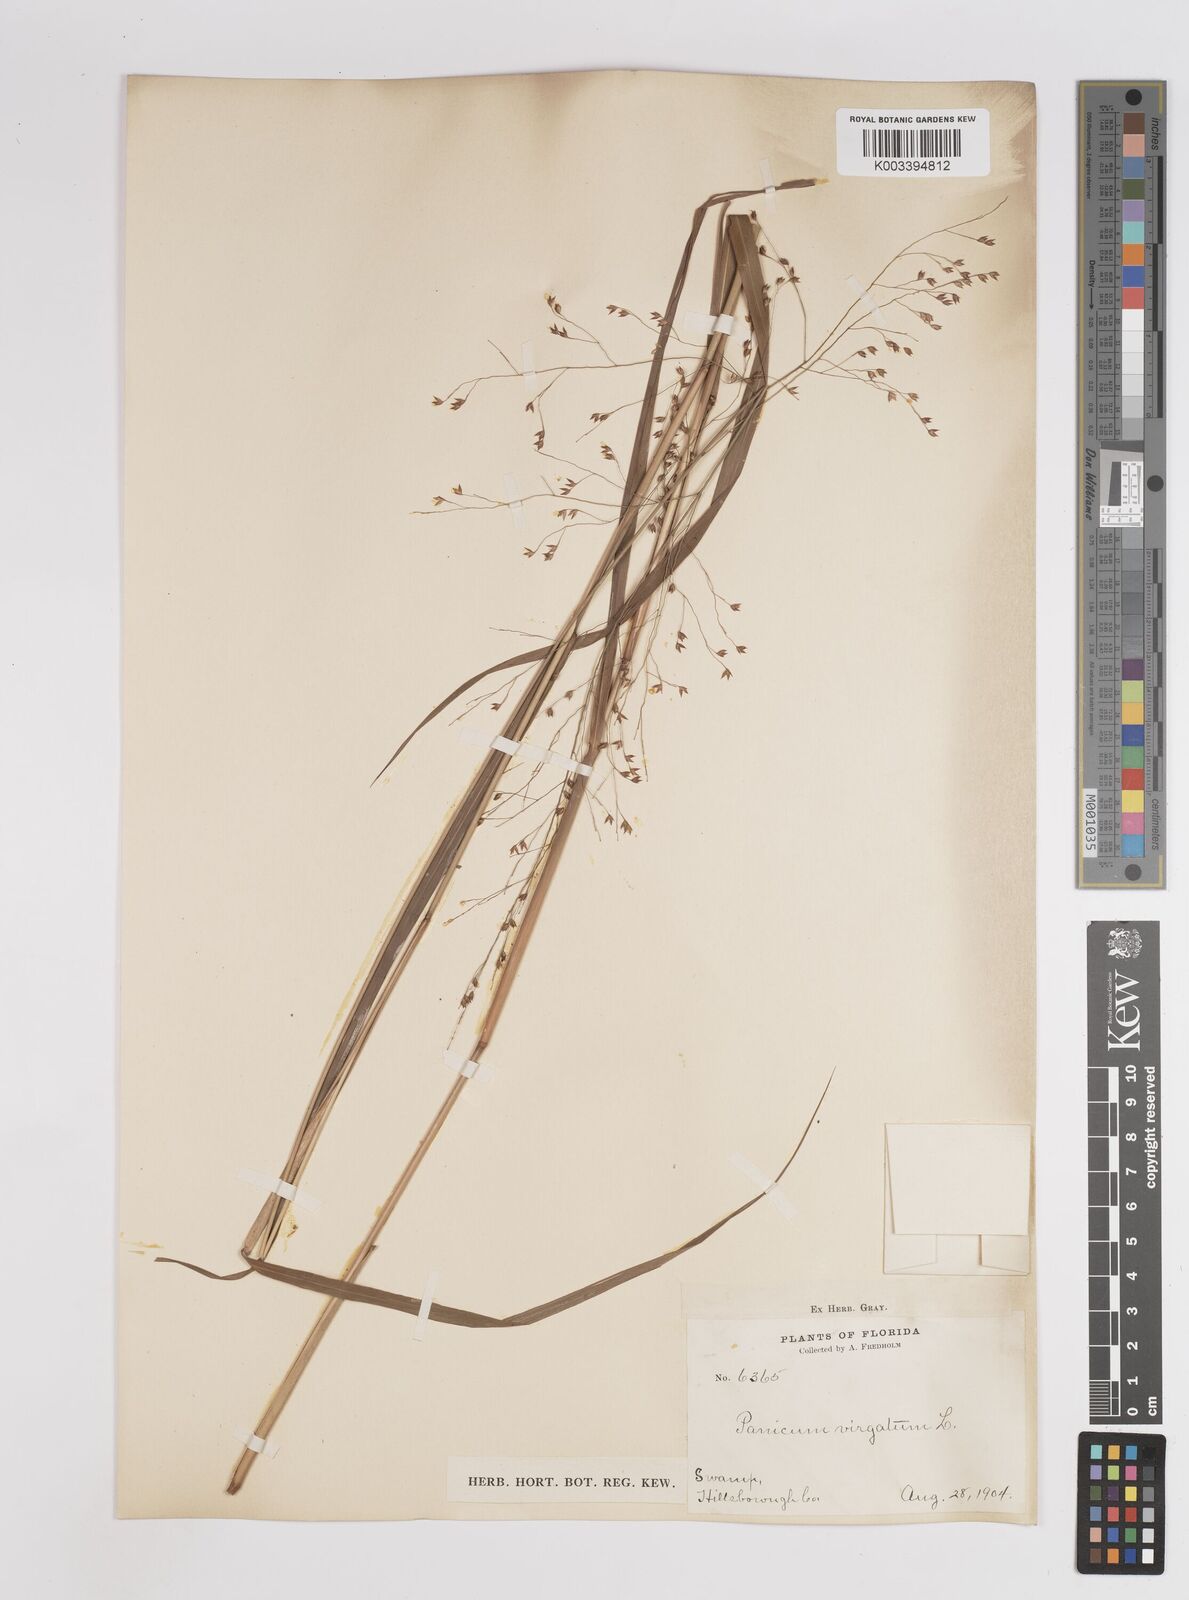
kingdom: Plantae
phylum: Tracheophyta
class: Liliopsida
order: Poales
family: Poaceae
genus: Panicum
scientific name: Panicum virgatum
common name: Switchgrass
